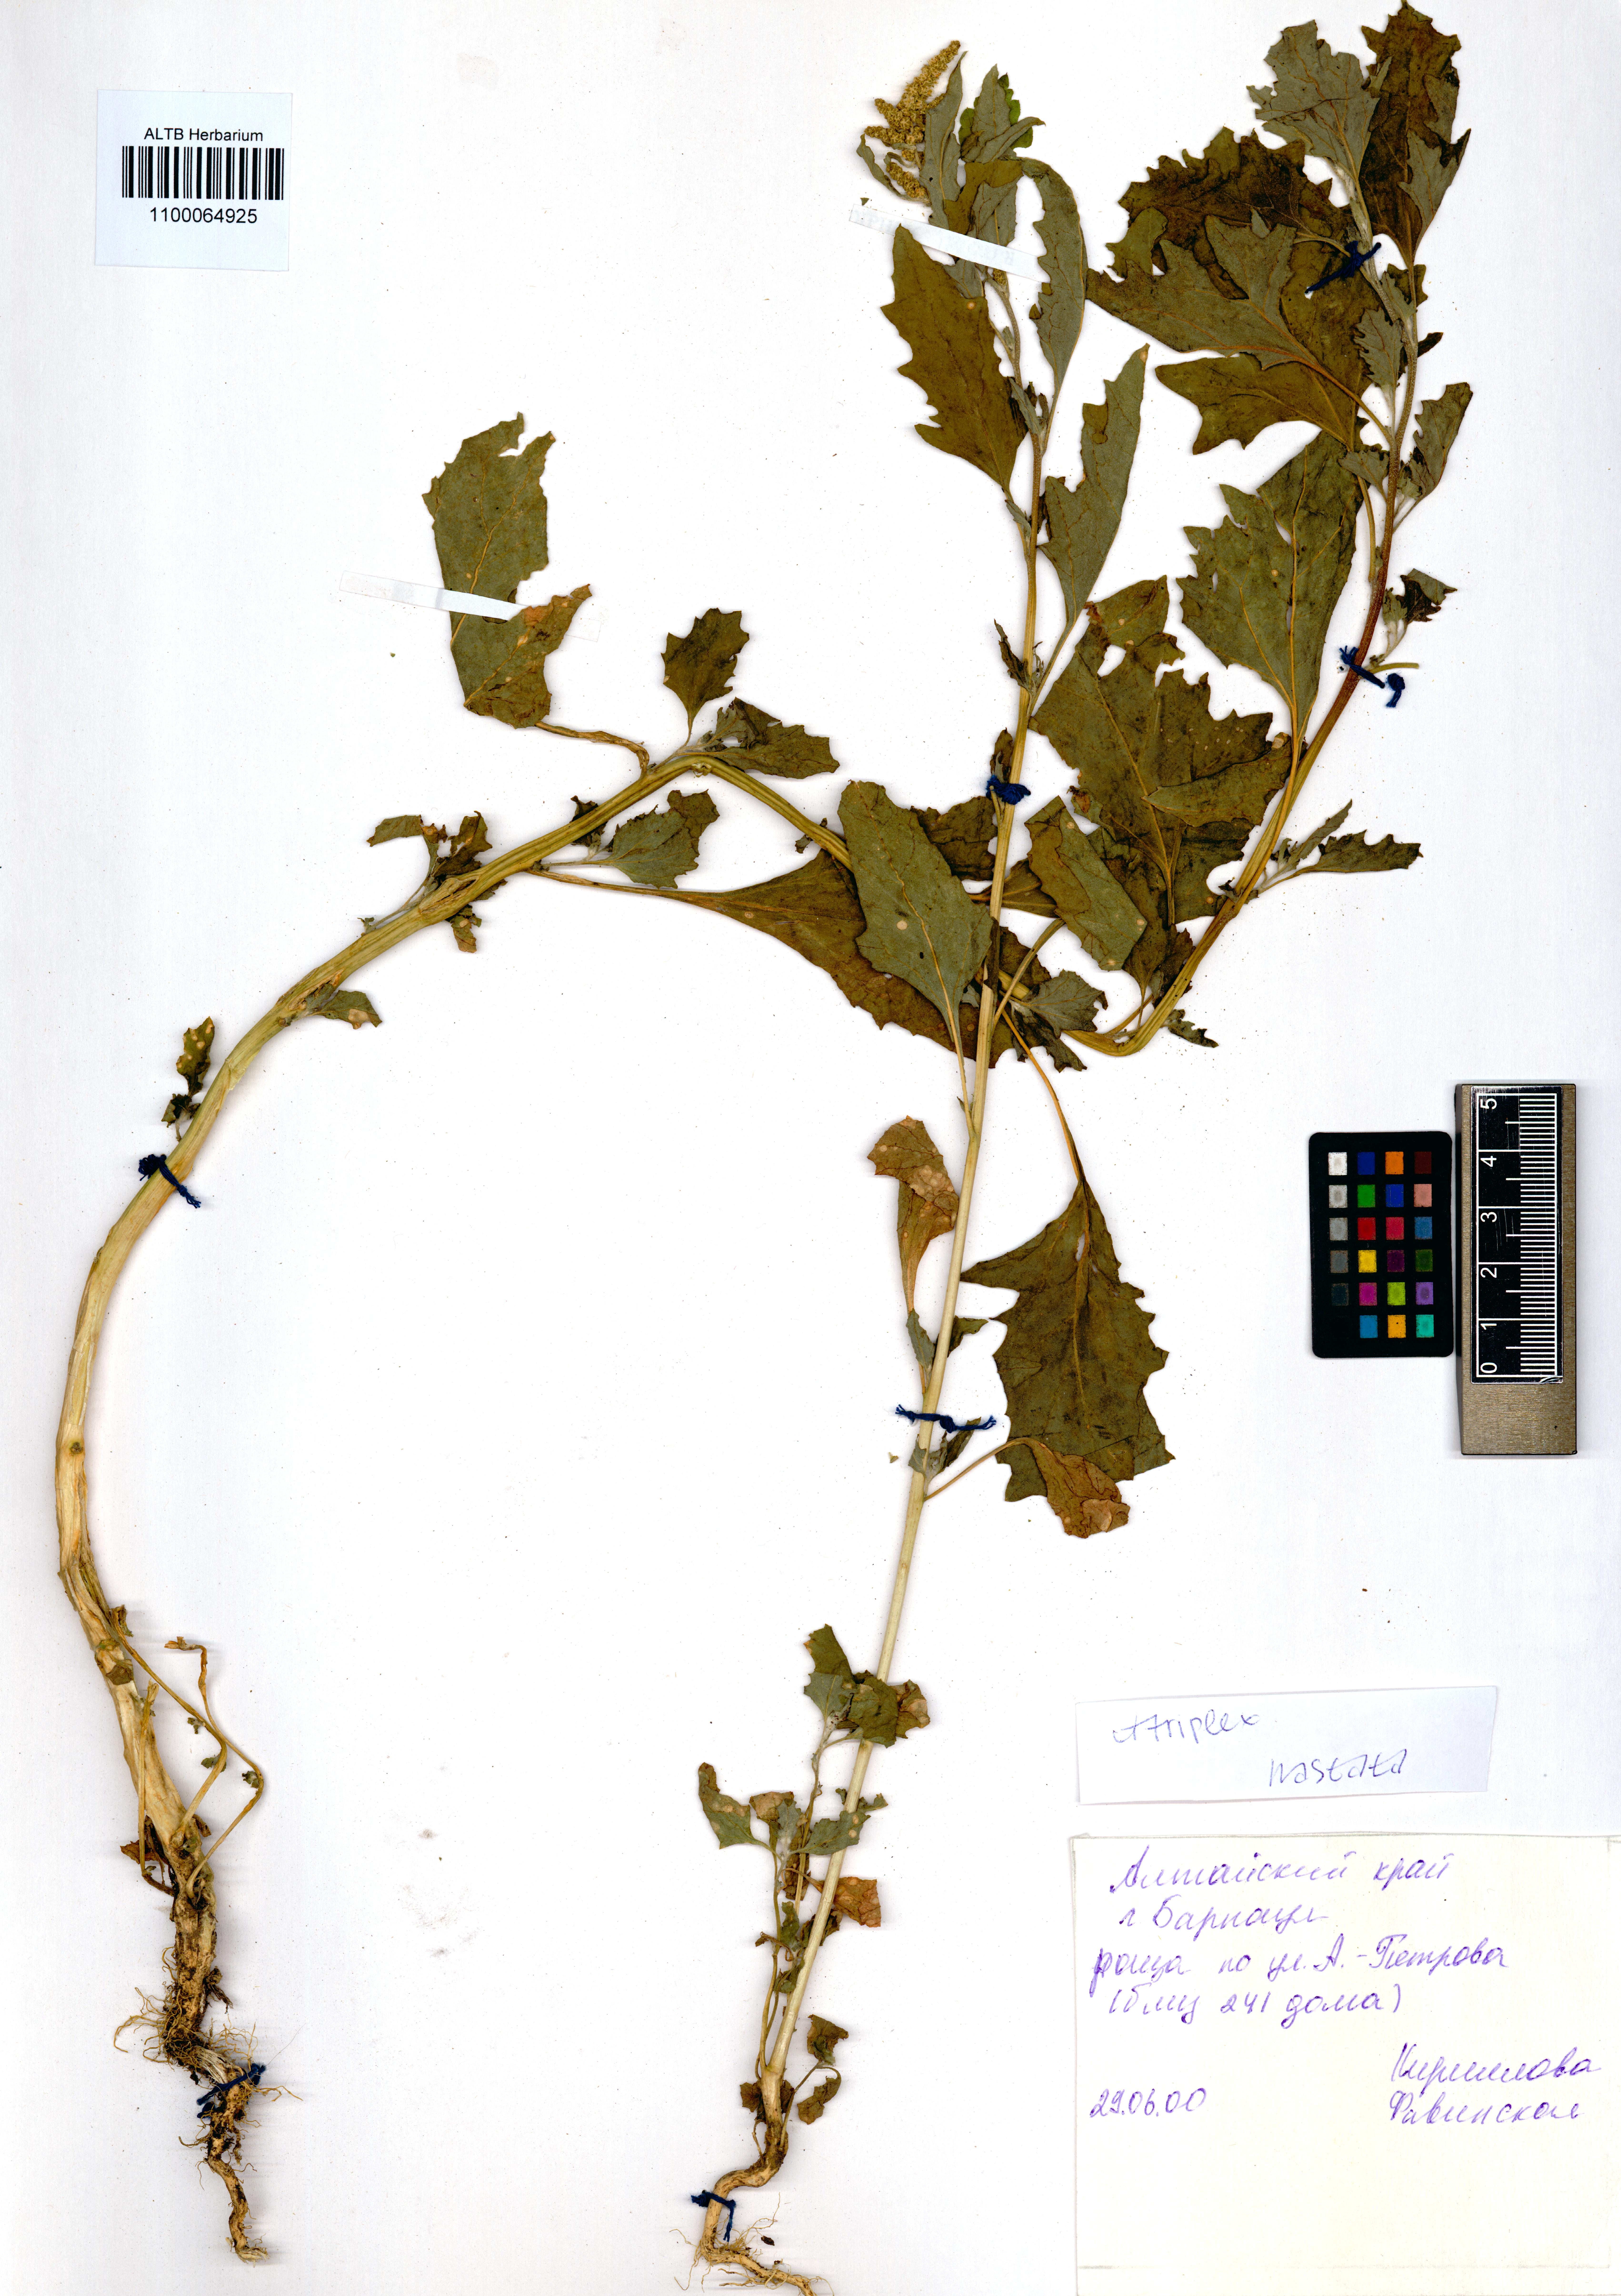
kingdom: Plantae
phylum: Tracheophyta
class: Magnoliopsida
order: Caryophyllales
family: Amaranthaceae
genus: Atriplex
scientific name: Atriplex calotheca
